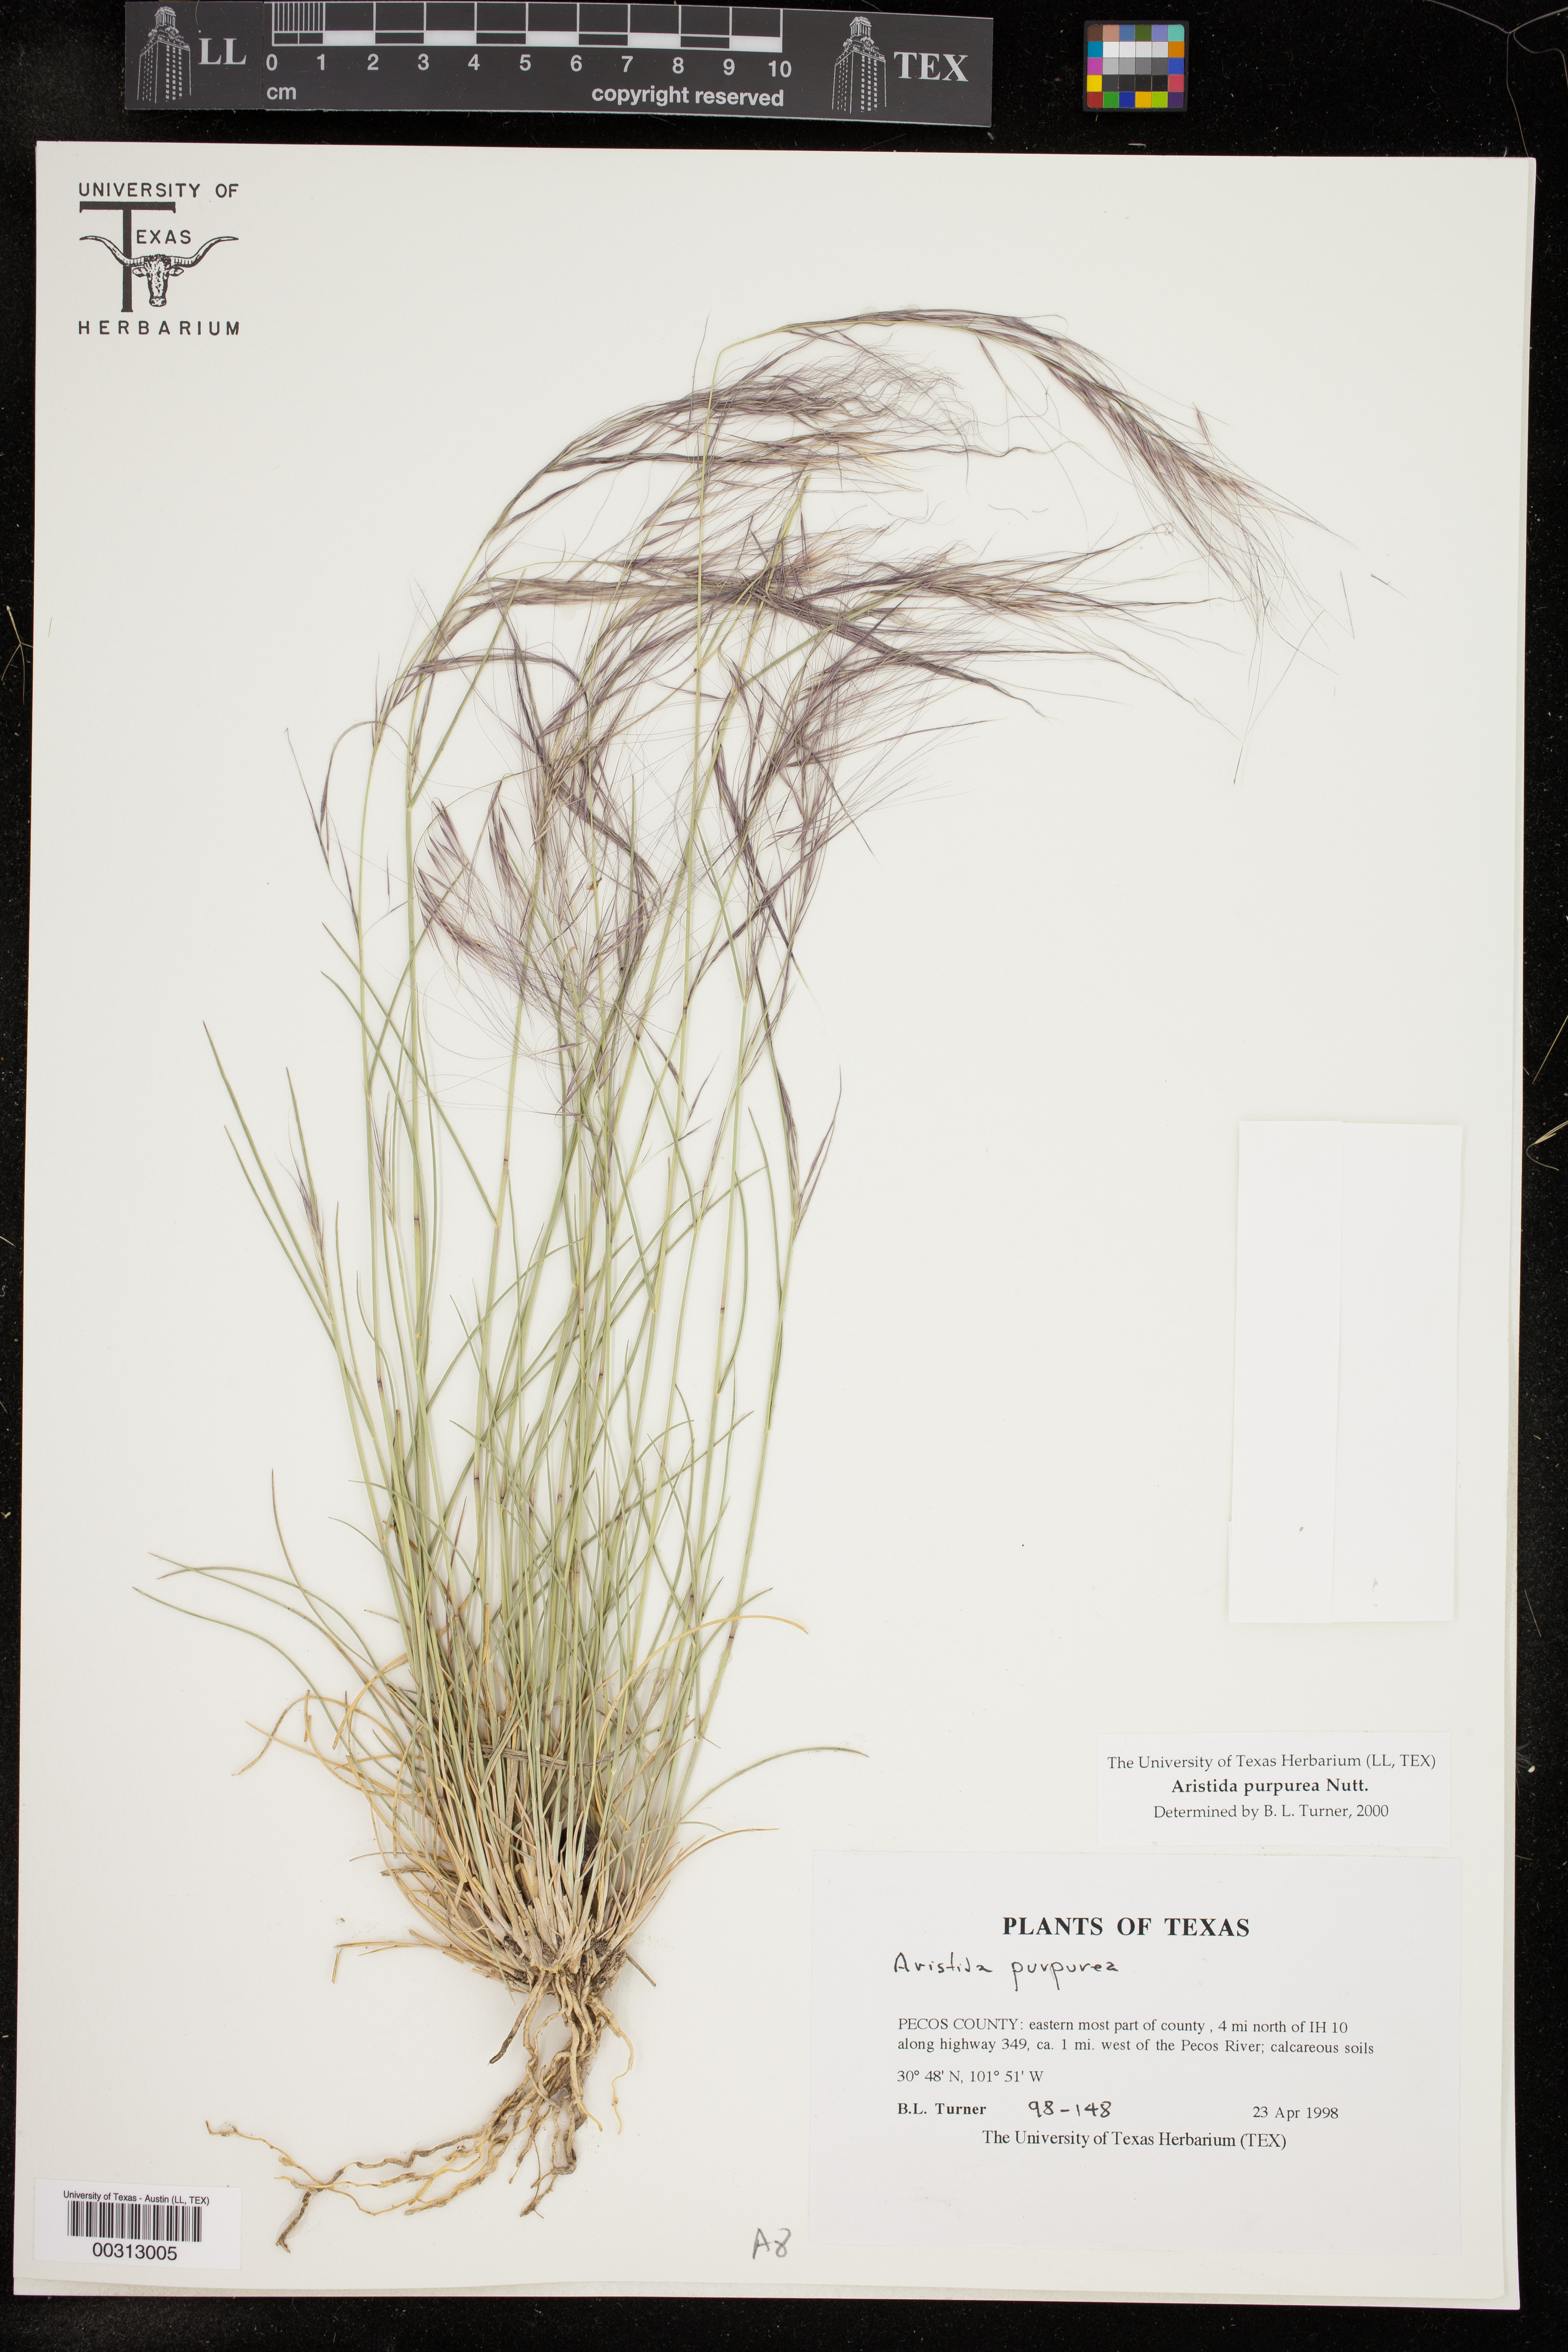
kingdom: Plantae
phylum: Tracheophyta
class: Liliopsida
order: Poales
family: Poaceae
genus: Aristida
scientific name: Aristida purpurea
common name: Purple threeawn
